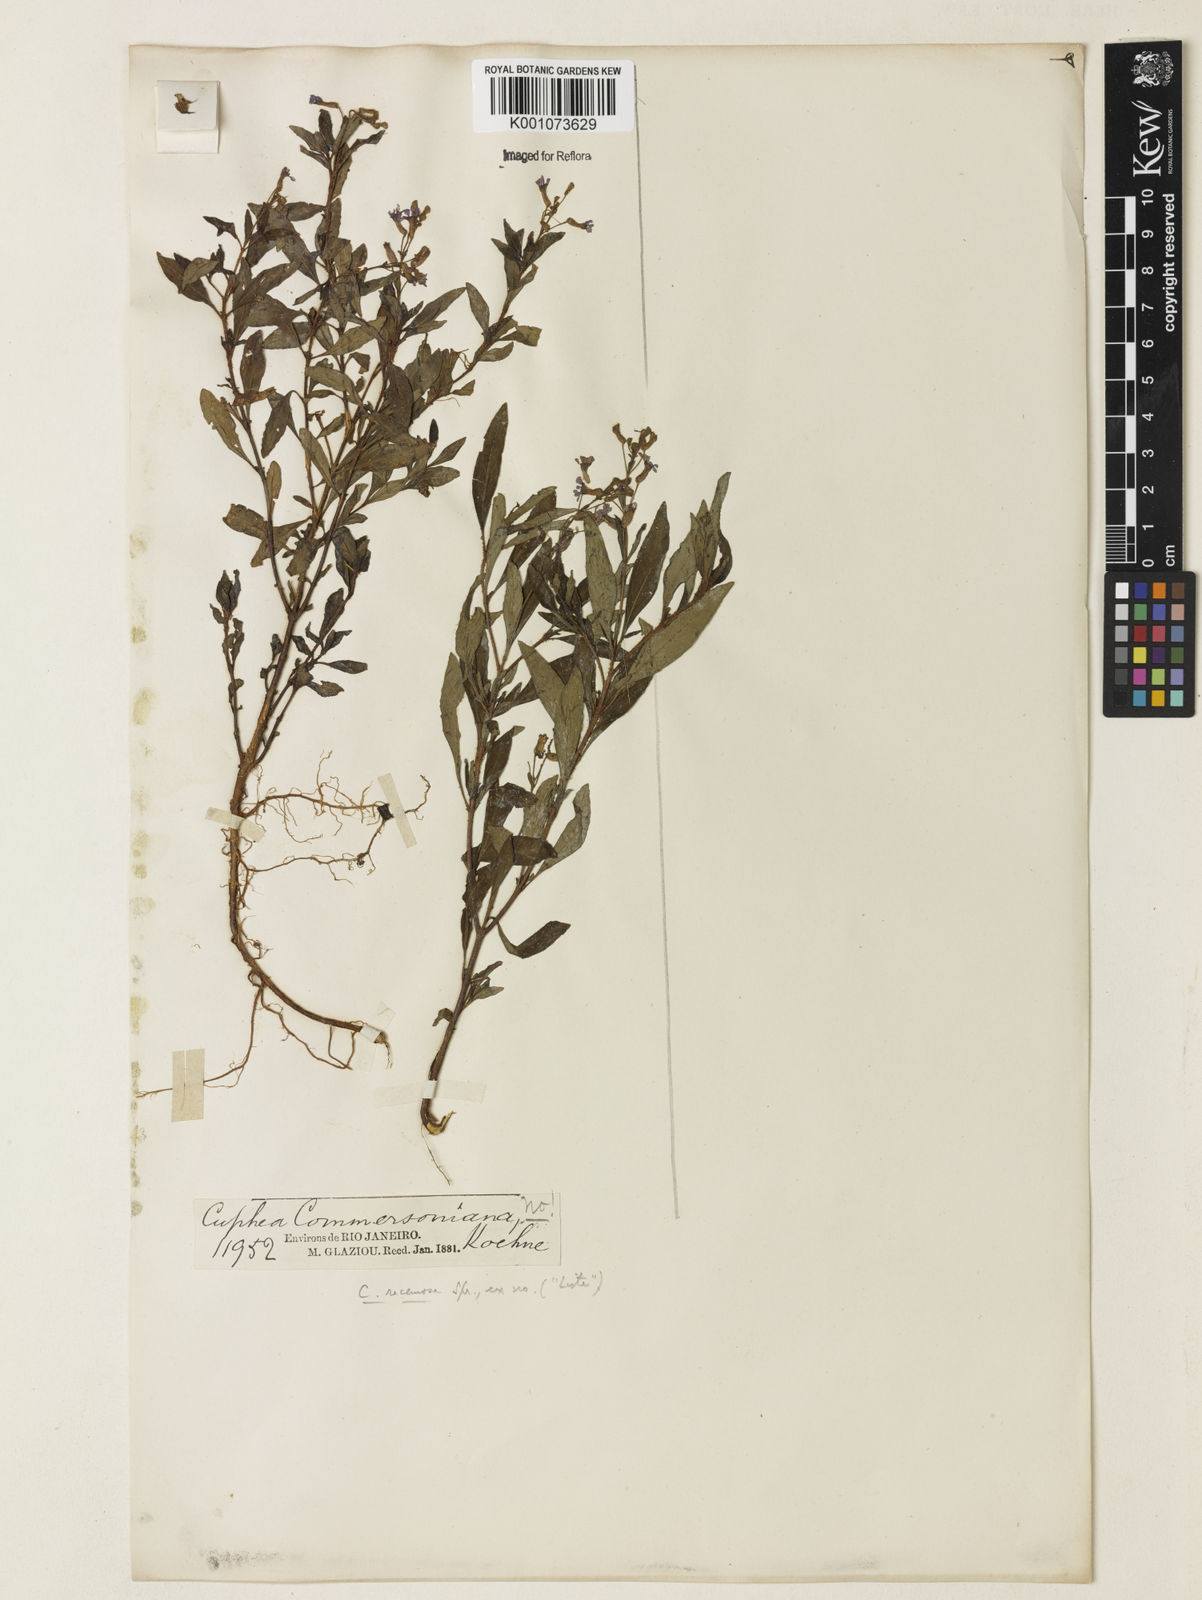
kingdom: Plantae
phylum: Tracheophyta
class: Magnoliopsida
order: Myrtales
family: Lythraceae
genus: Cuphea
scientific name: Cuphea racemosa
